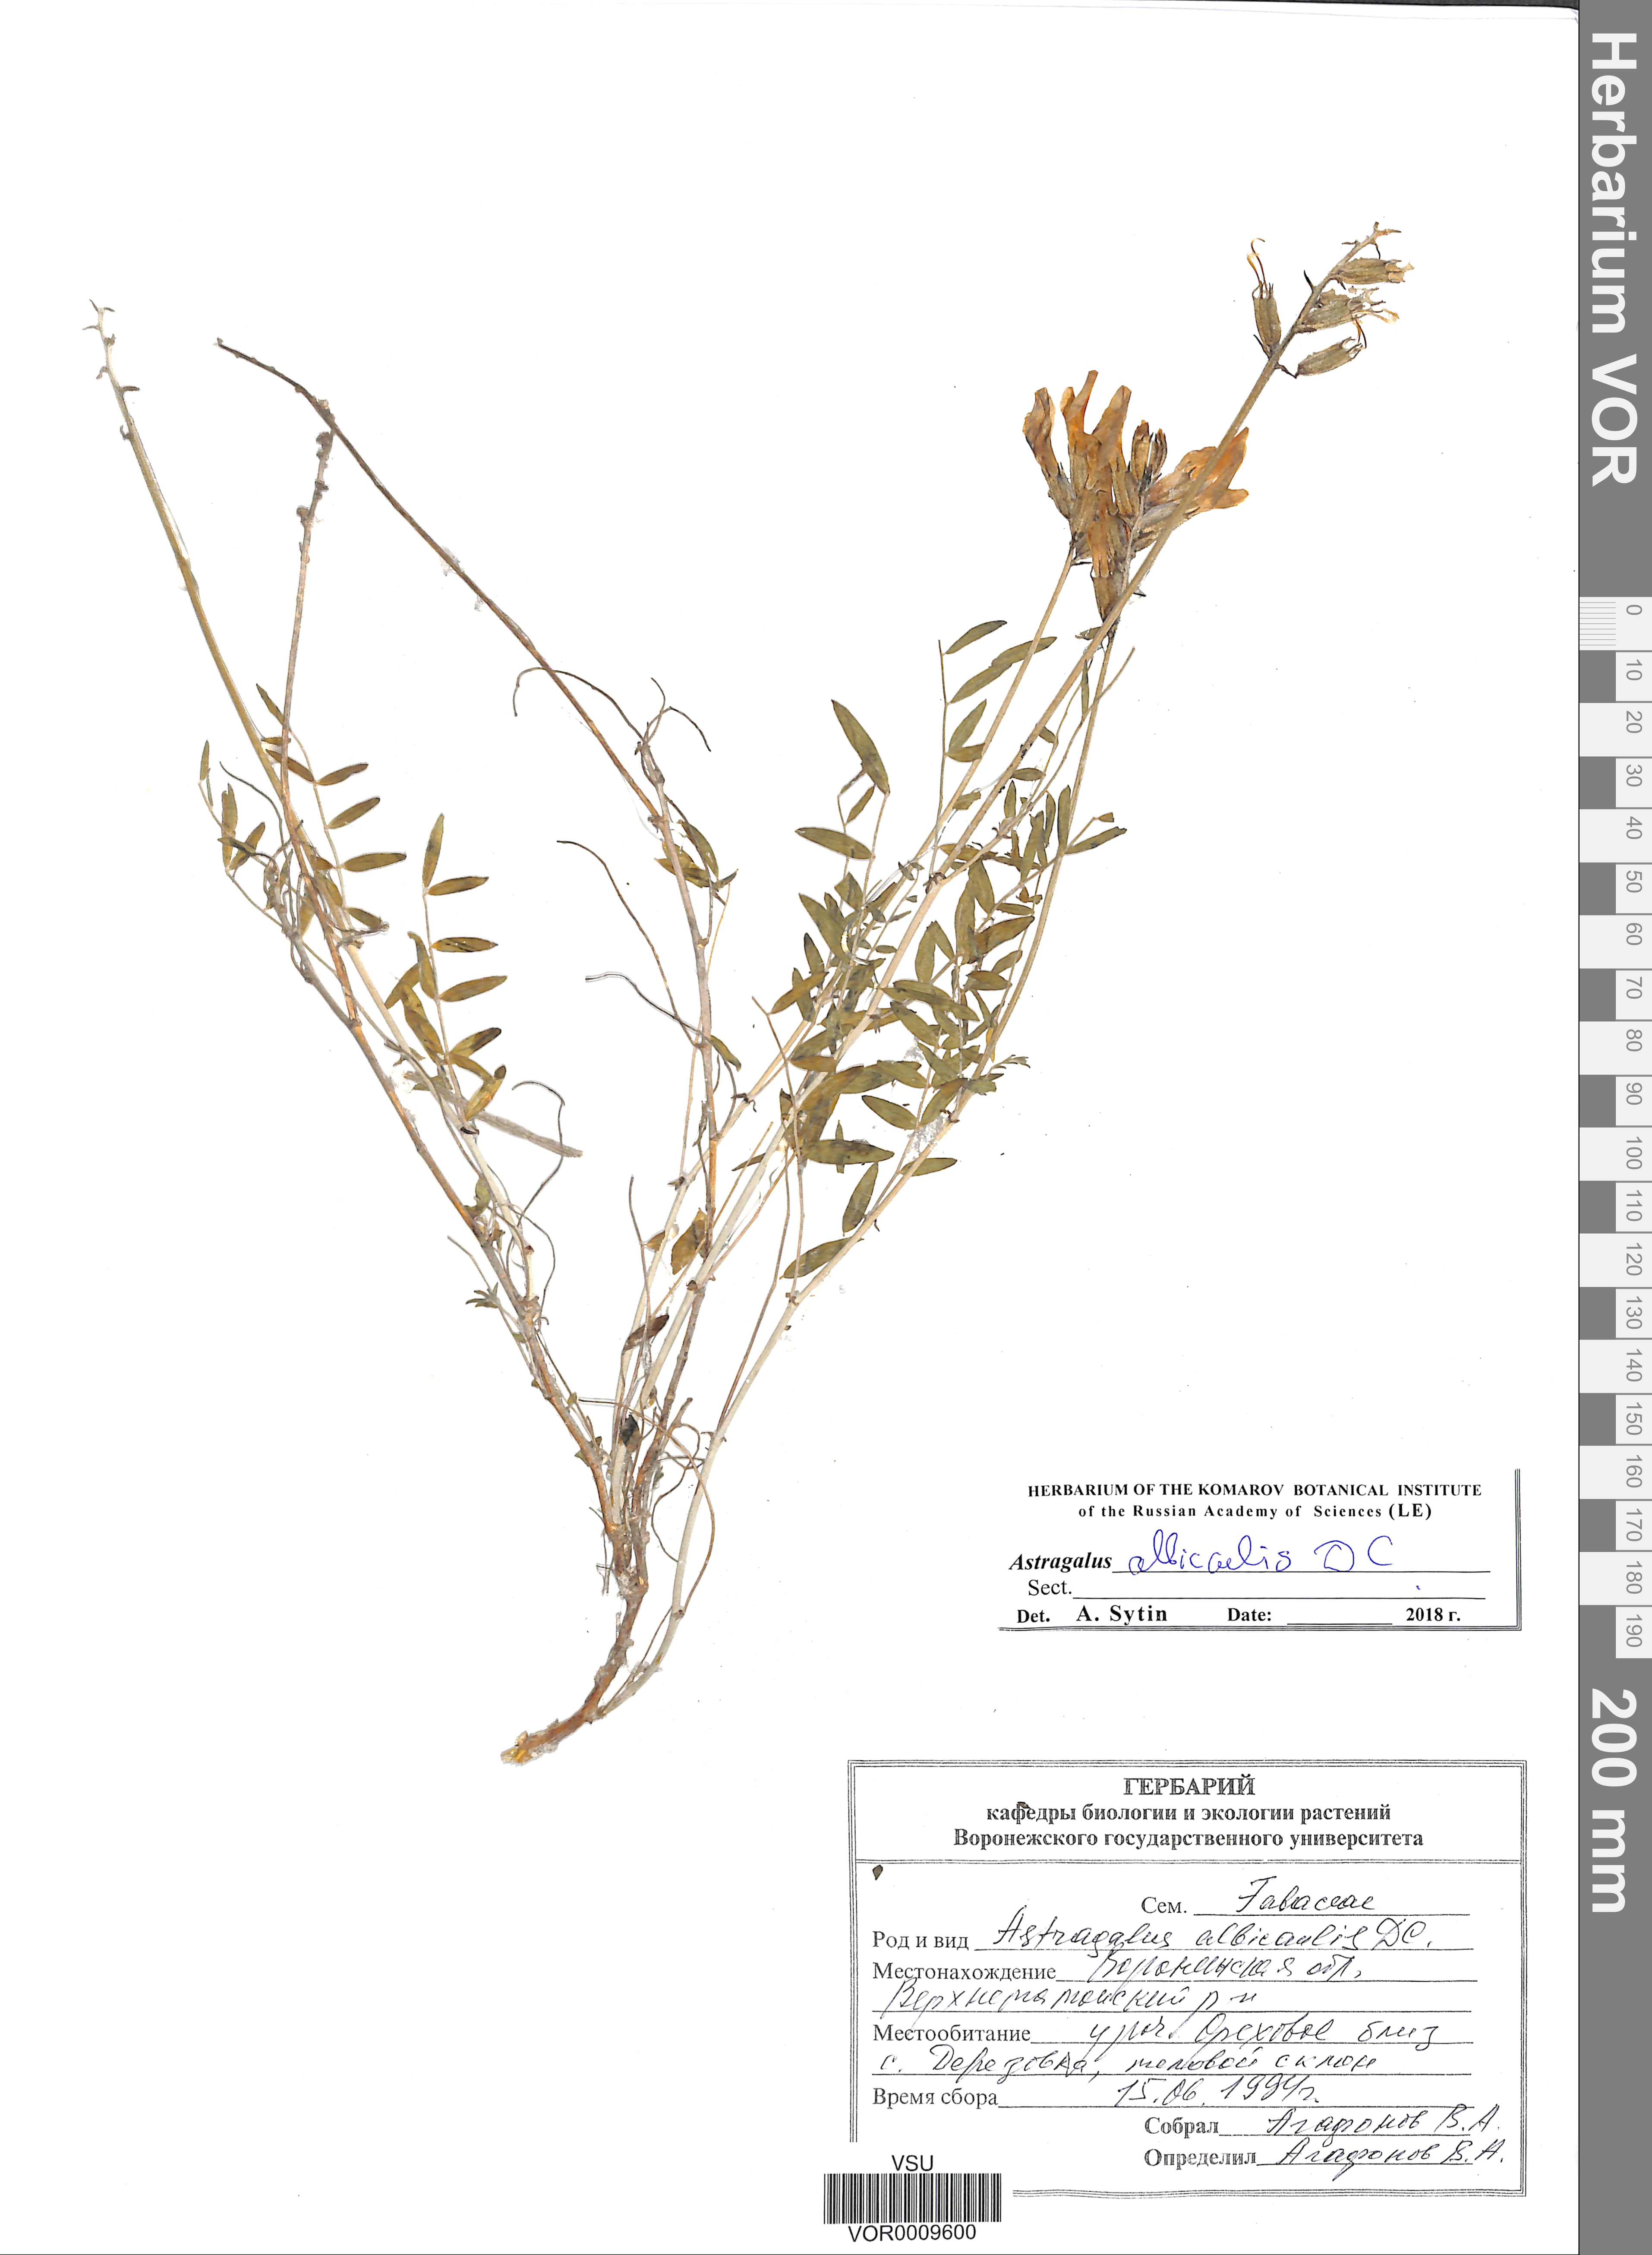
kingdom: Plantae
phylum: Tracheophyta
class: Magnoliopsida
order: Fabales
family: Fabaceae
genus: Astragalus
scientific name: Astragalus albicaulis
